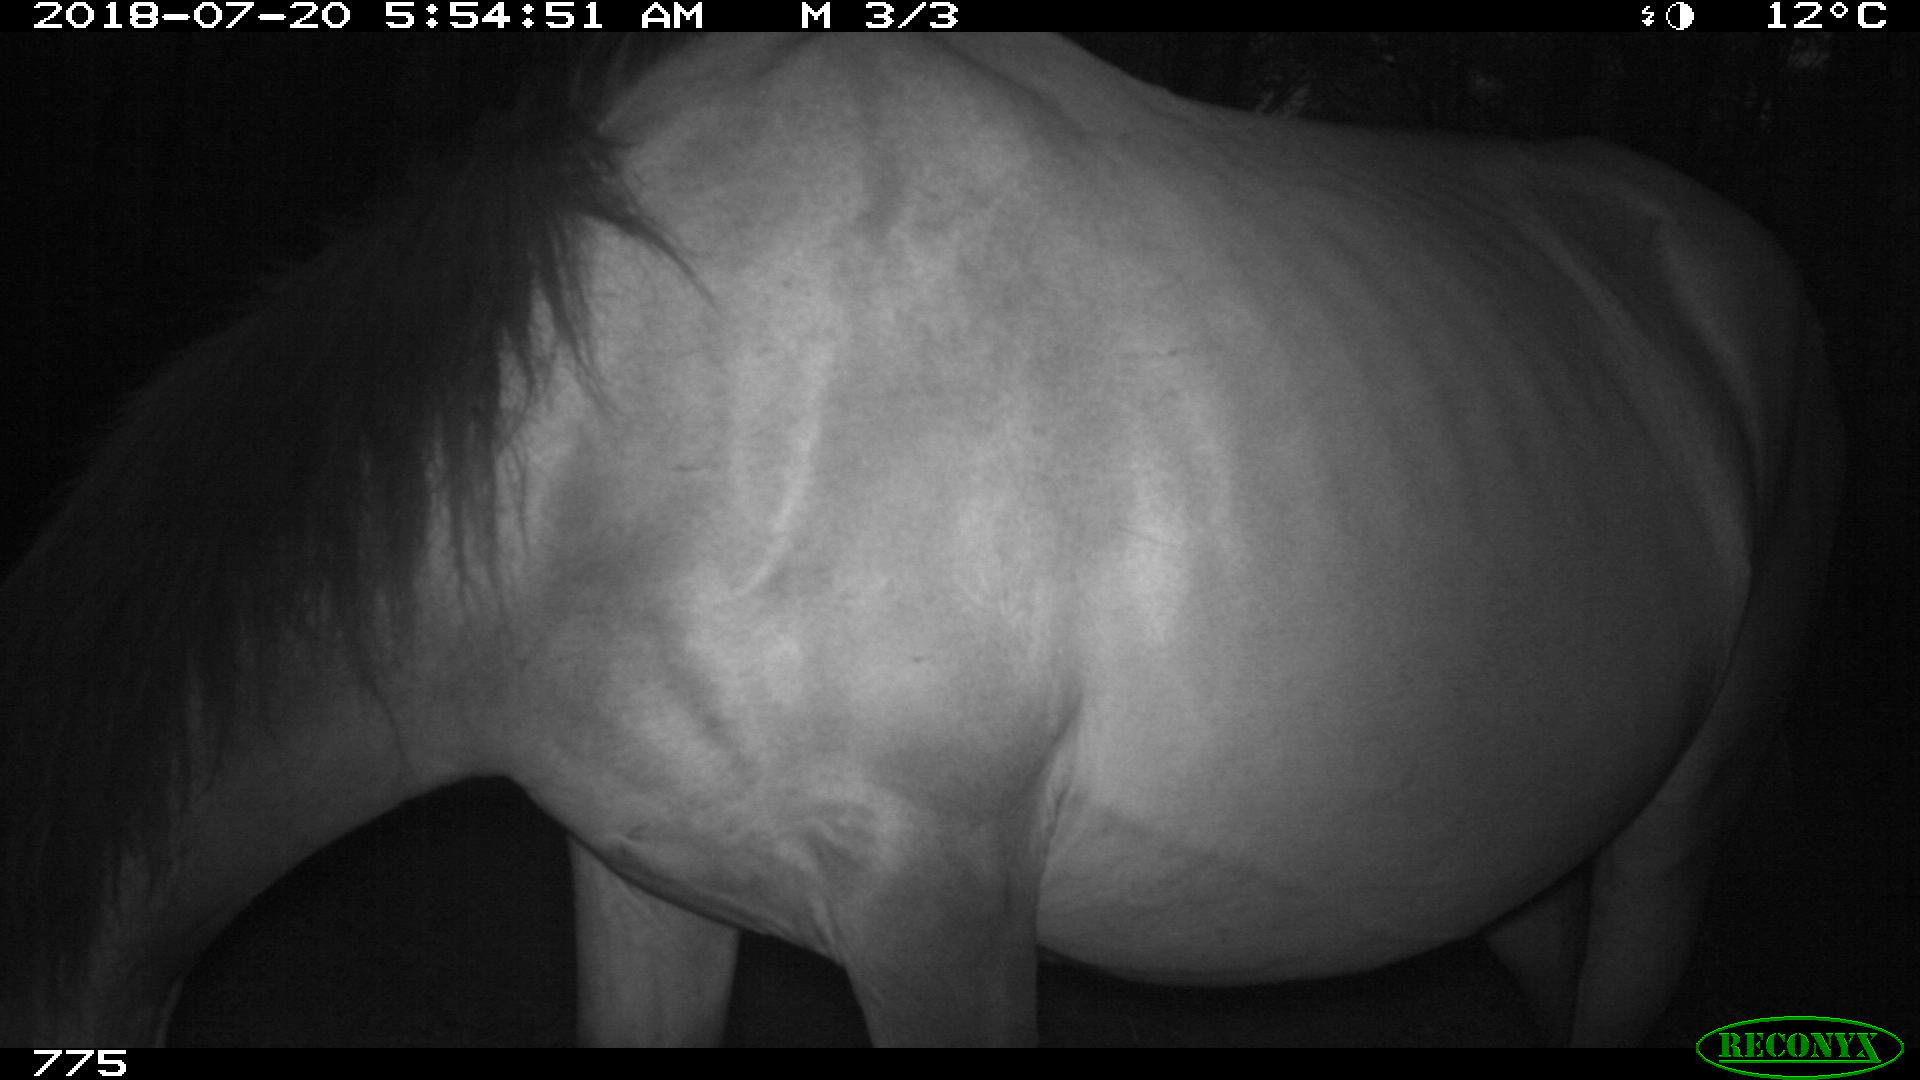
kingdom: Animalia
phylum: Chordata
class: Mammalia
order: Perissodactyla
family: Equidae
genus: Equus
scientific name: Equus caballus
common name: Horse
